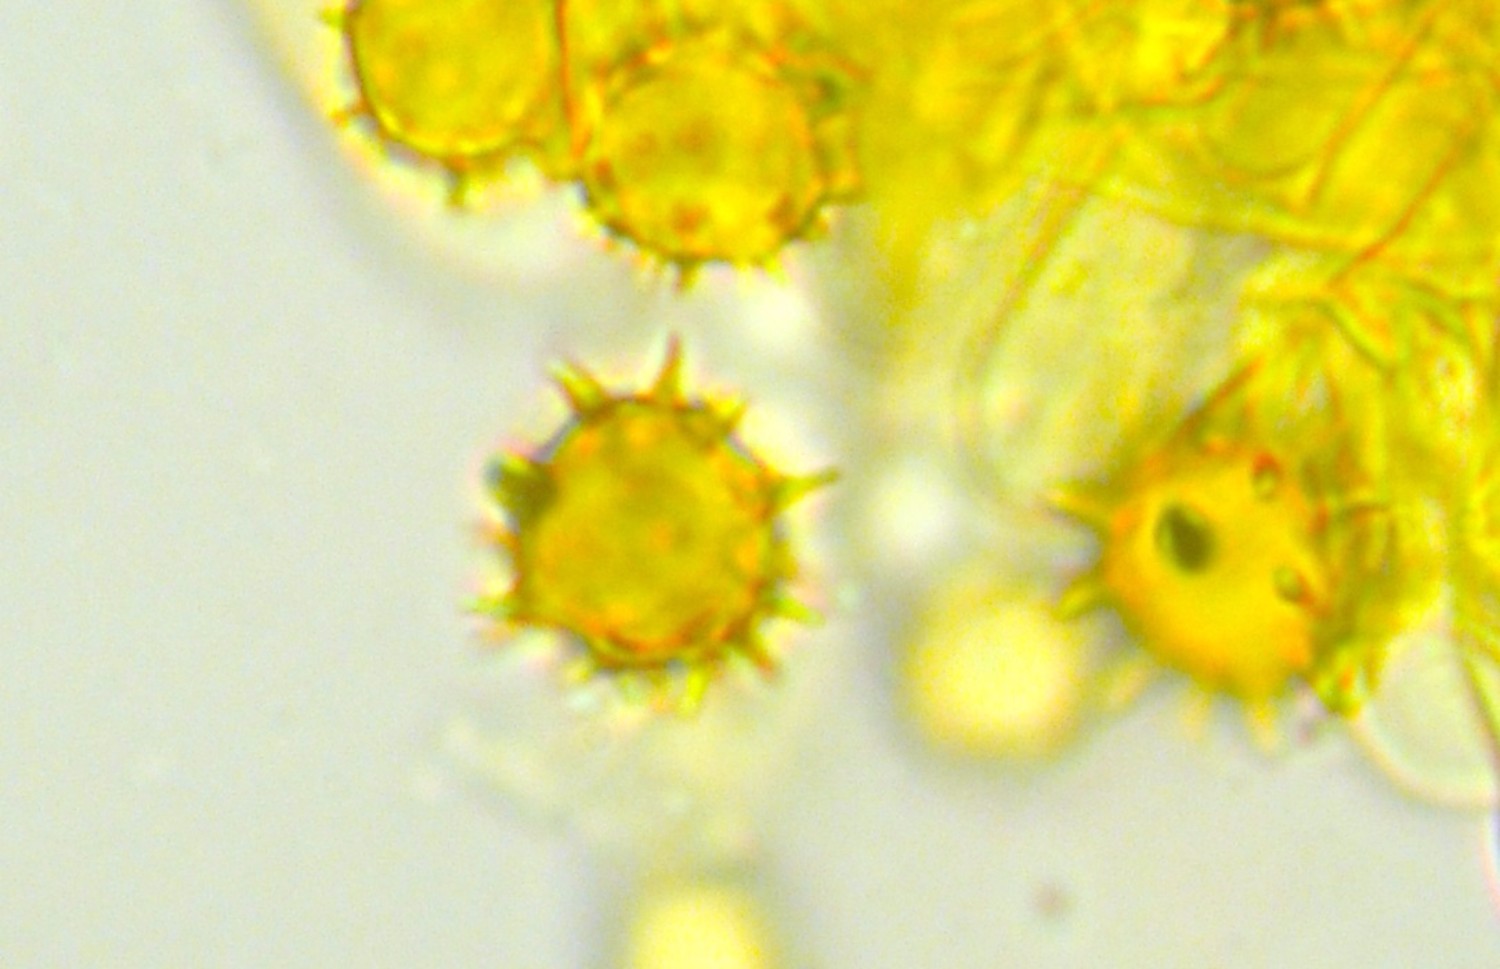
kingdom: Fungi
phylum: Basidiomycota
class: Agaricomycetes
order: Thelephorales
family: Thelephoraceae
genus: Tomentella
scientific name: Tomentella bryophila
